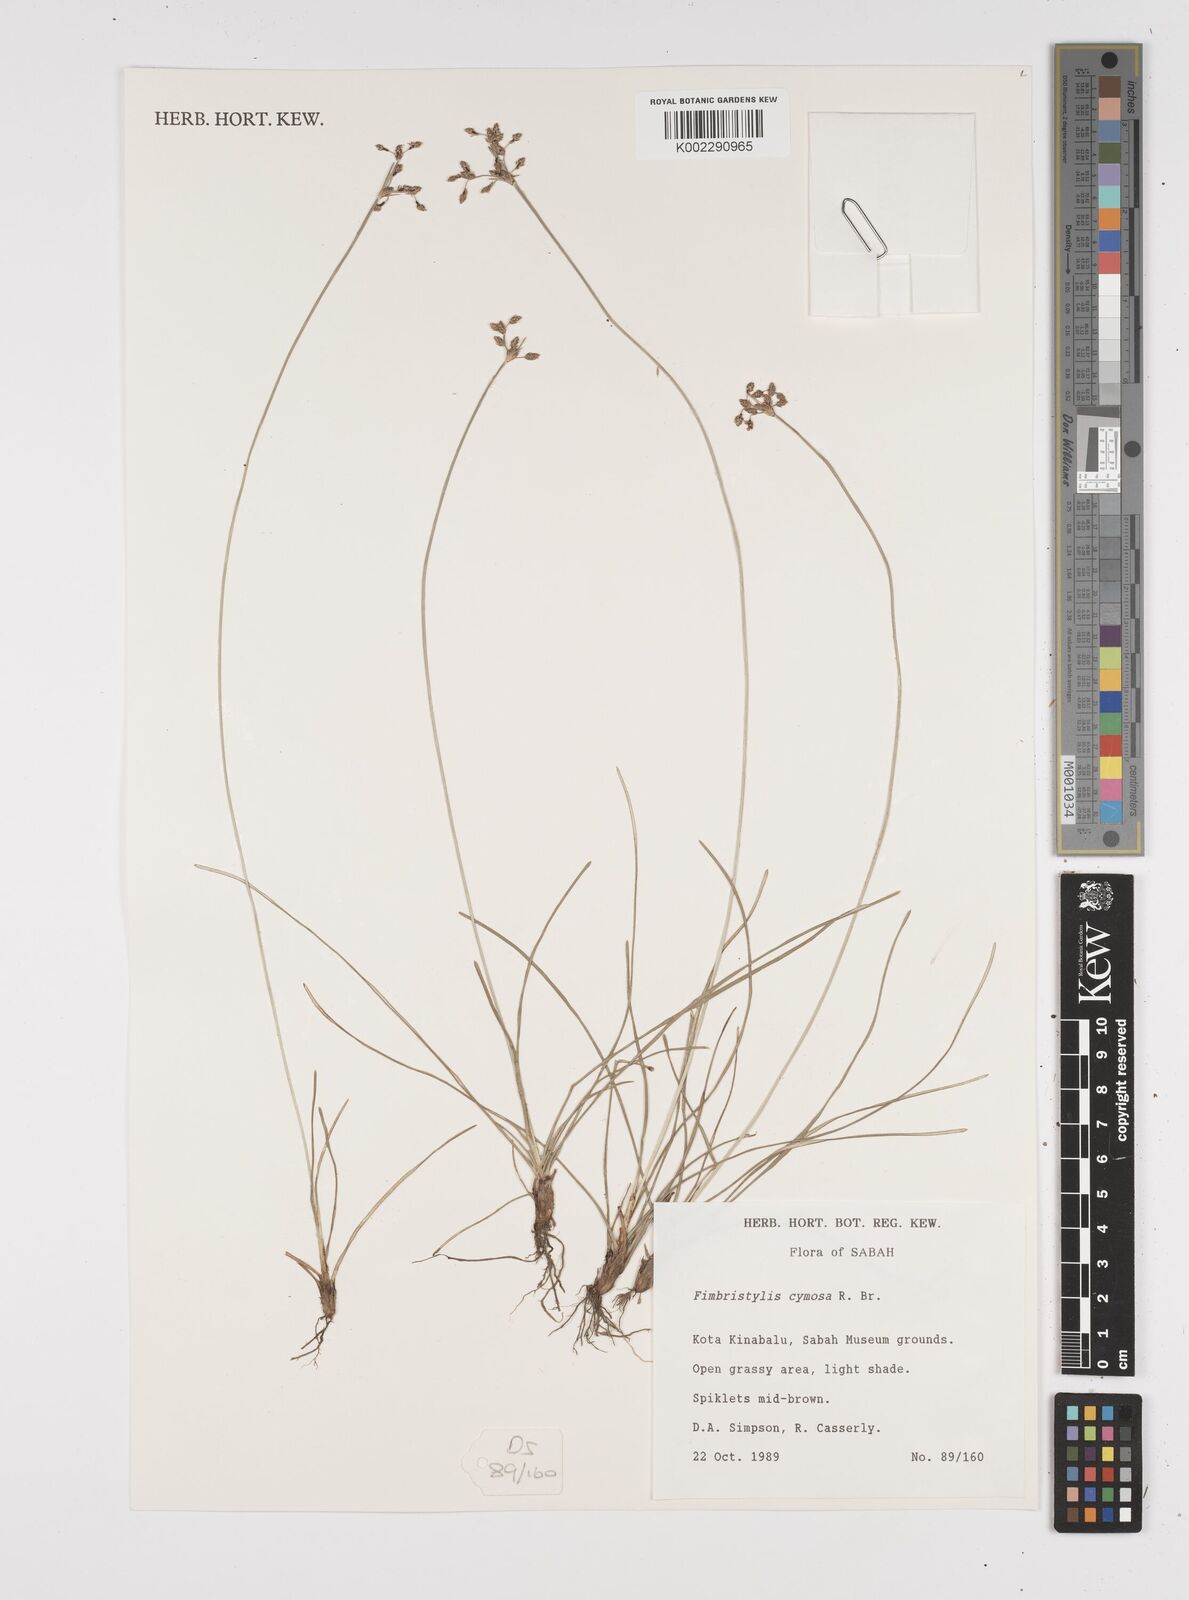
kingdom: Plantae
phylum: Tracheophyta
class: Liliopsida
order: Poales
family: Cyperaceae
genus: Fimbristylis
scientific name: Fimbristylis cymosa
